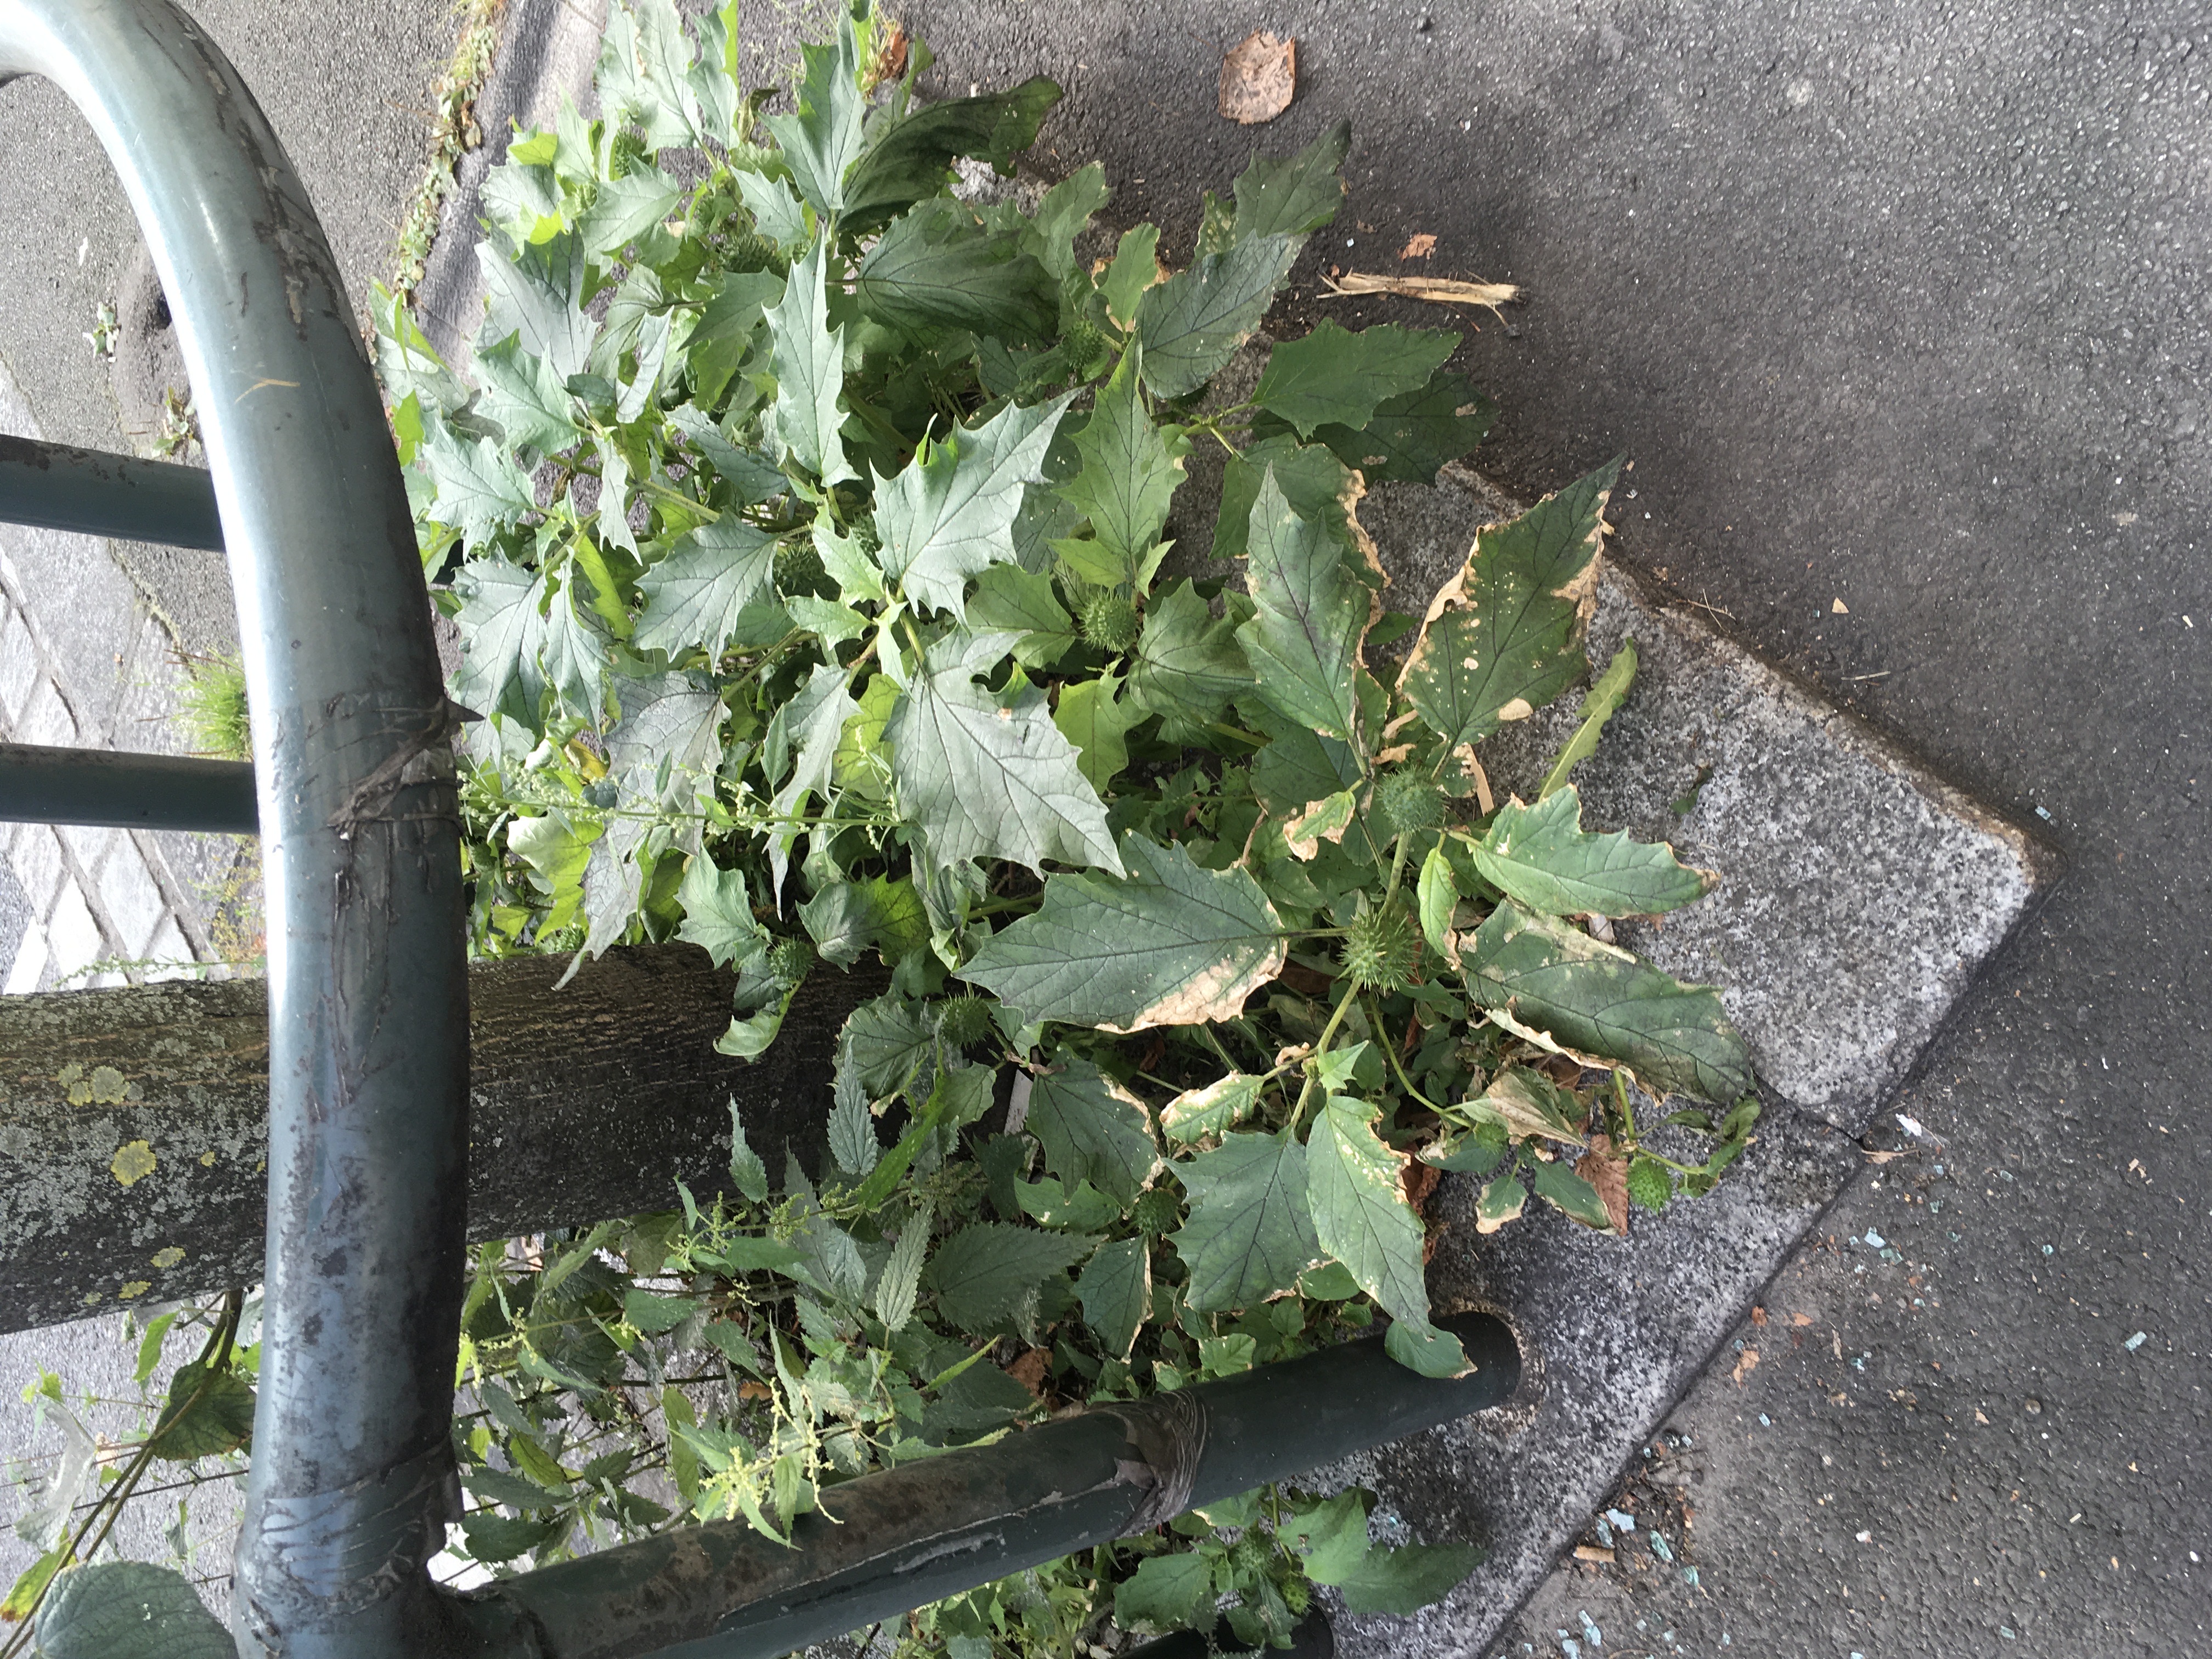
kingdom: Plantae
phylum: Tracheophyta
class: Magnoliopsida
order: Solanales
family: Solanaceae
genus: Datura
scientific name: Datura stramonium
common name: hvitpiggeple
